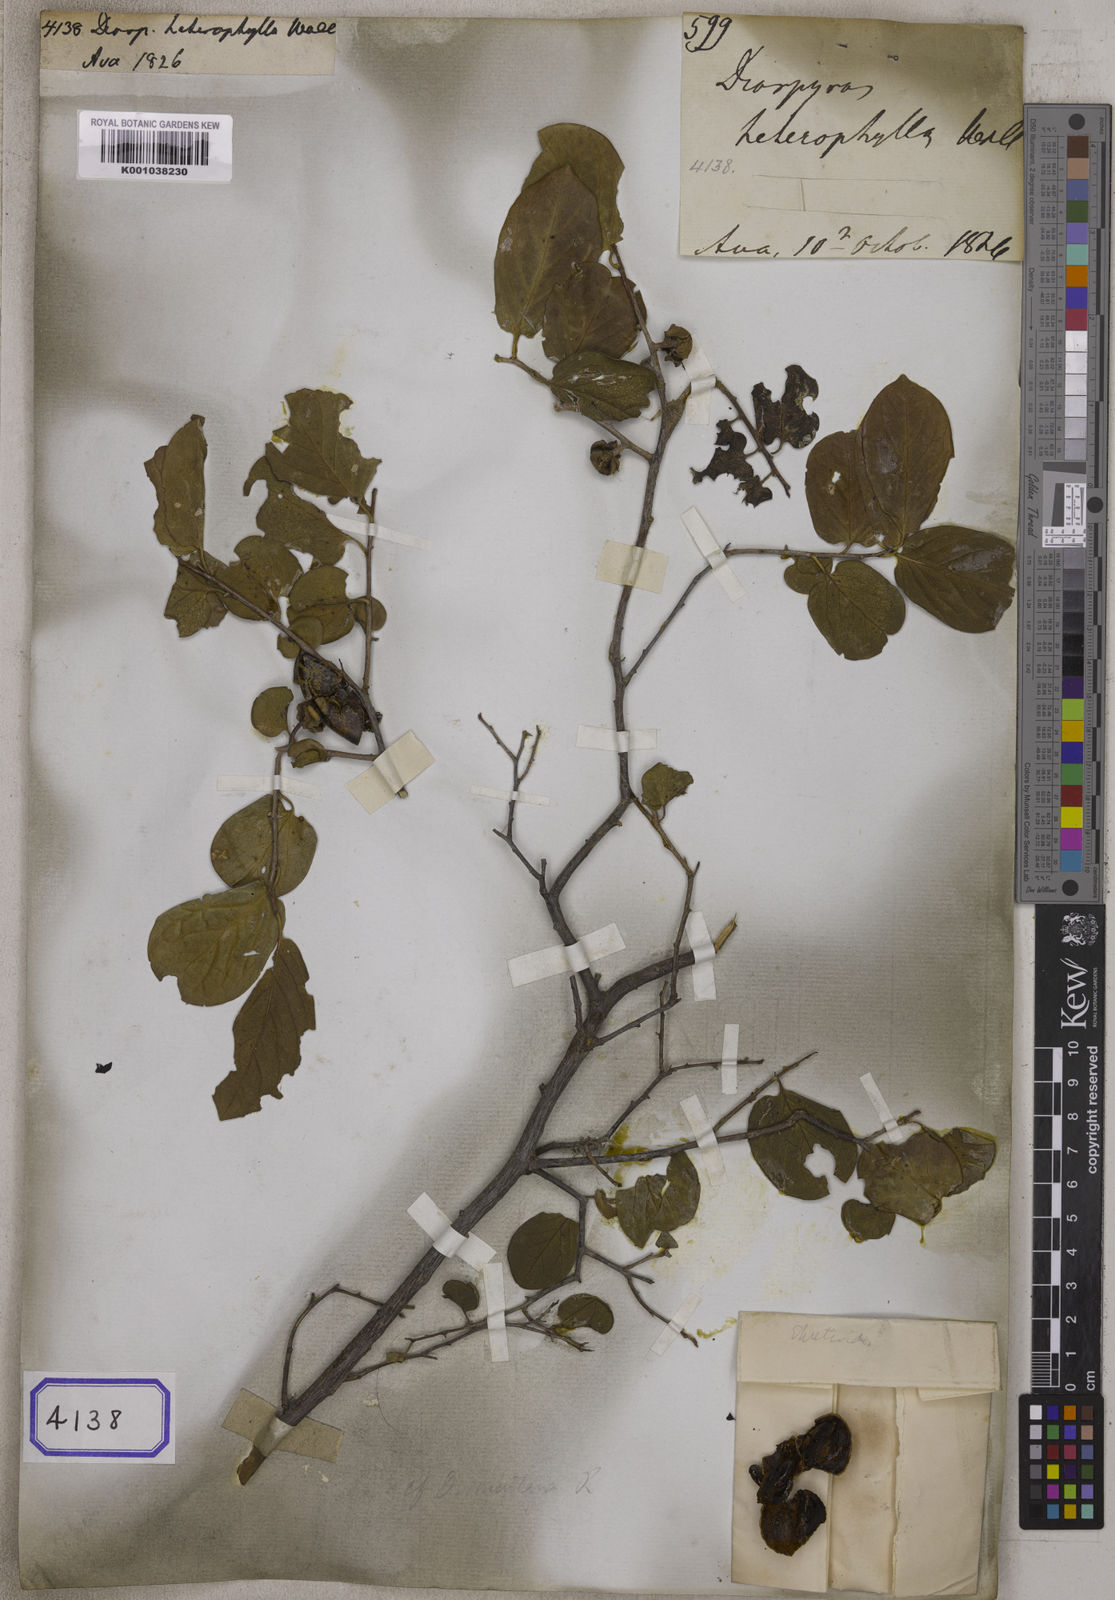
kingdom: Plantae
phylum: Tracheophyta
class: Magnoliopsida
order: Ericales
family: Ebenaceae
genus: Diospyros
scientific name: Diospyros
